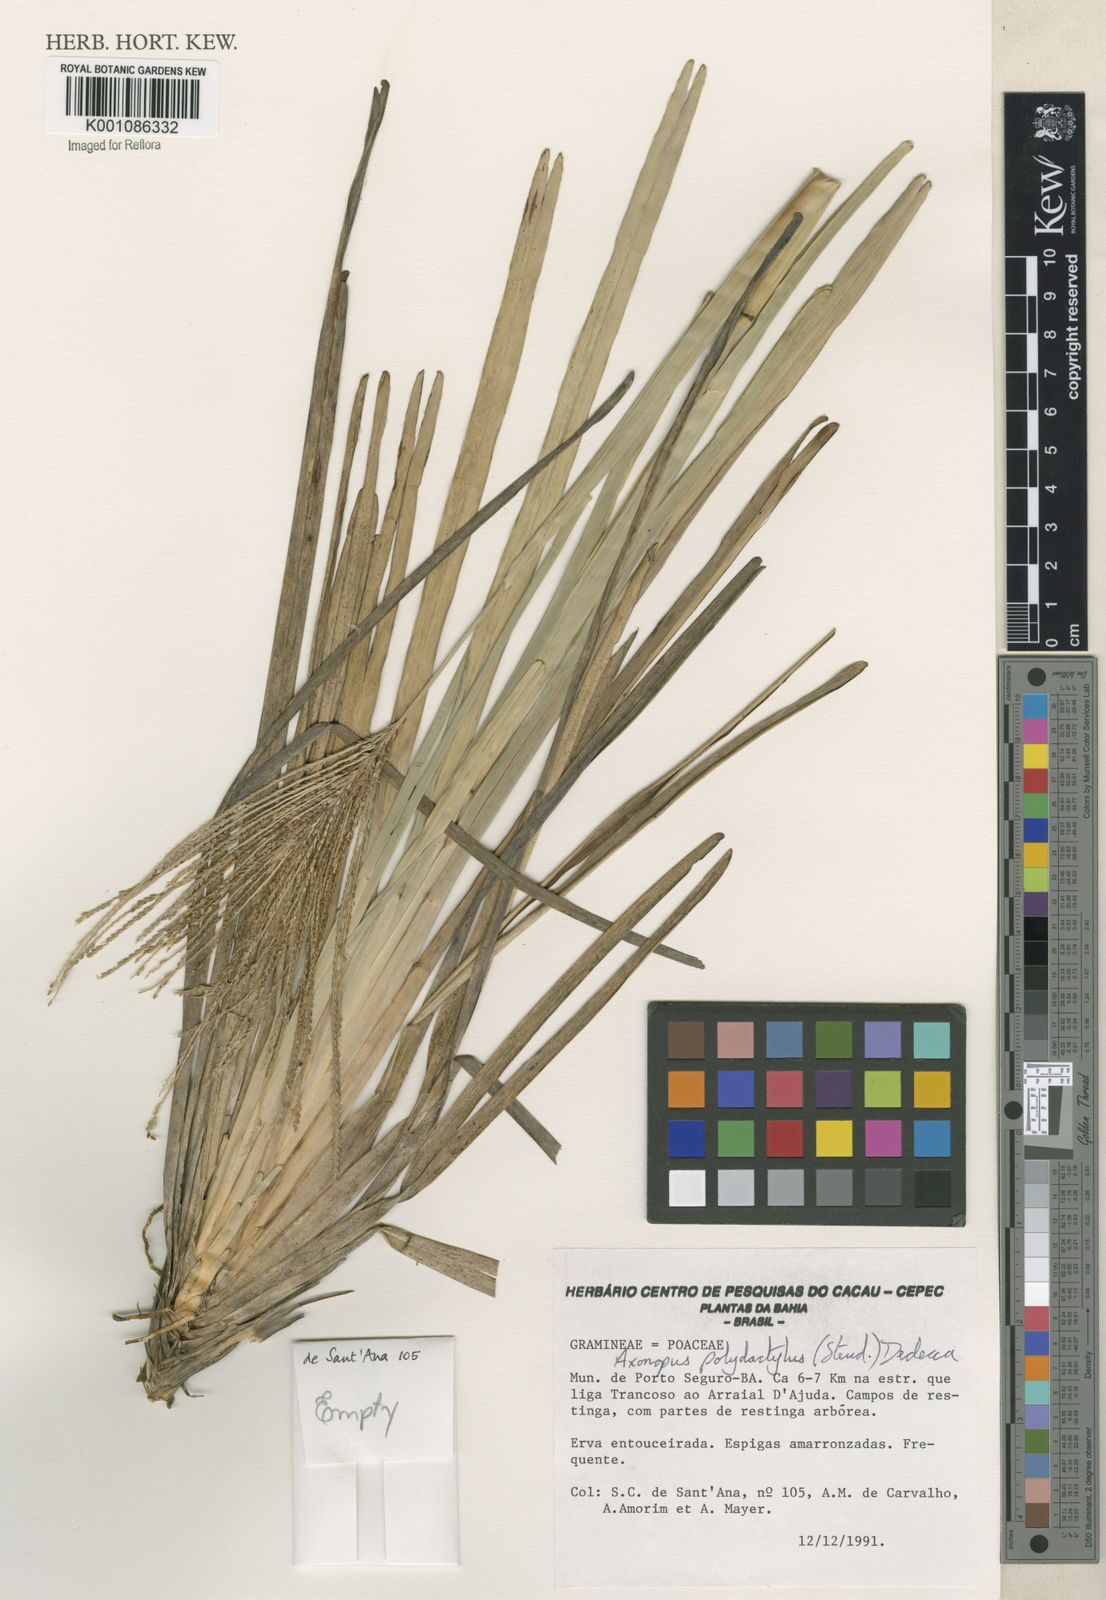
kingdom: Plantae
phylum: Tracheophyta
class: Liliopsida
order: Poales
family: Poaceae
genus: Axonopus
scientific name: Axonopus polydactylus
